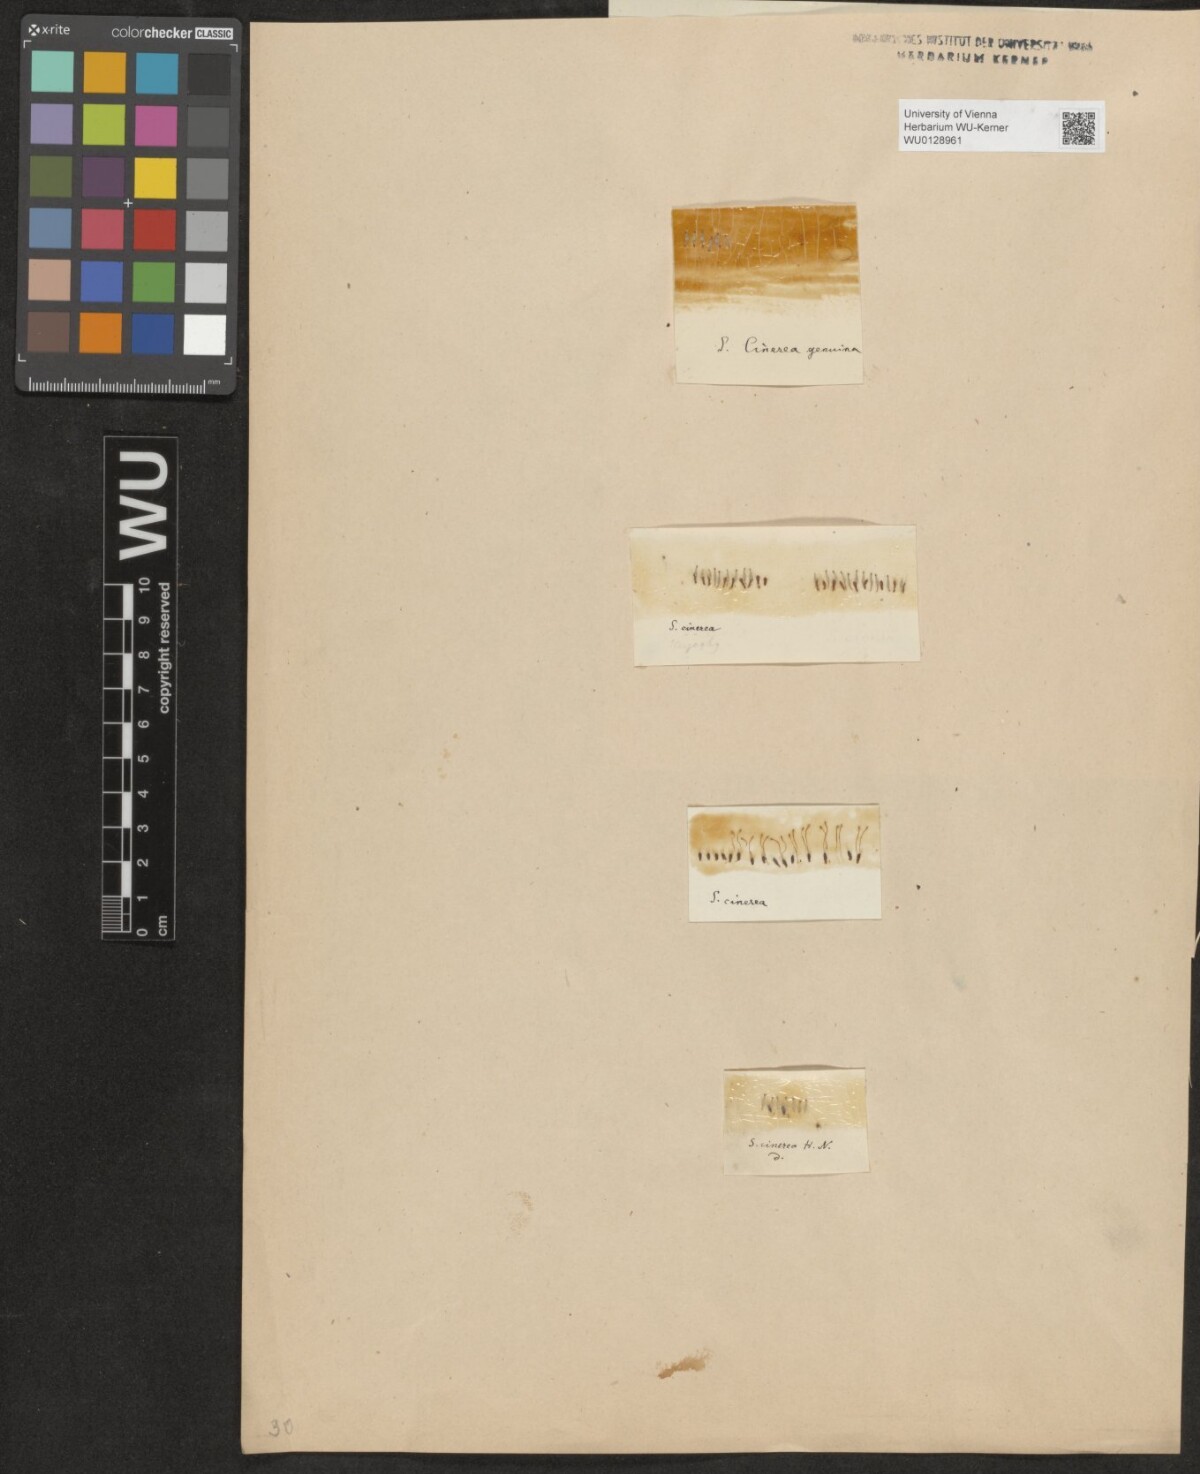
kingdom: Plantae
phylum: Tracheophyta
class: Magnoliopsida
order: Malpighiales
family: Salicaceae
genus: Salix
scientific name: Salix cinerea
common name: Common sallow
